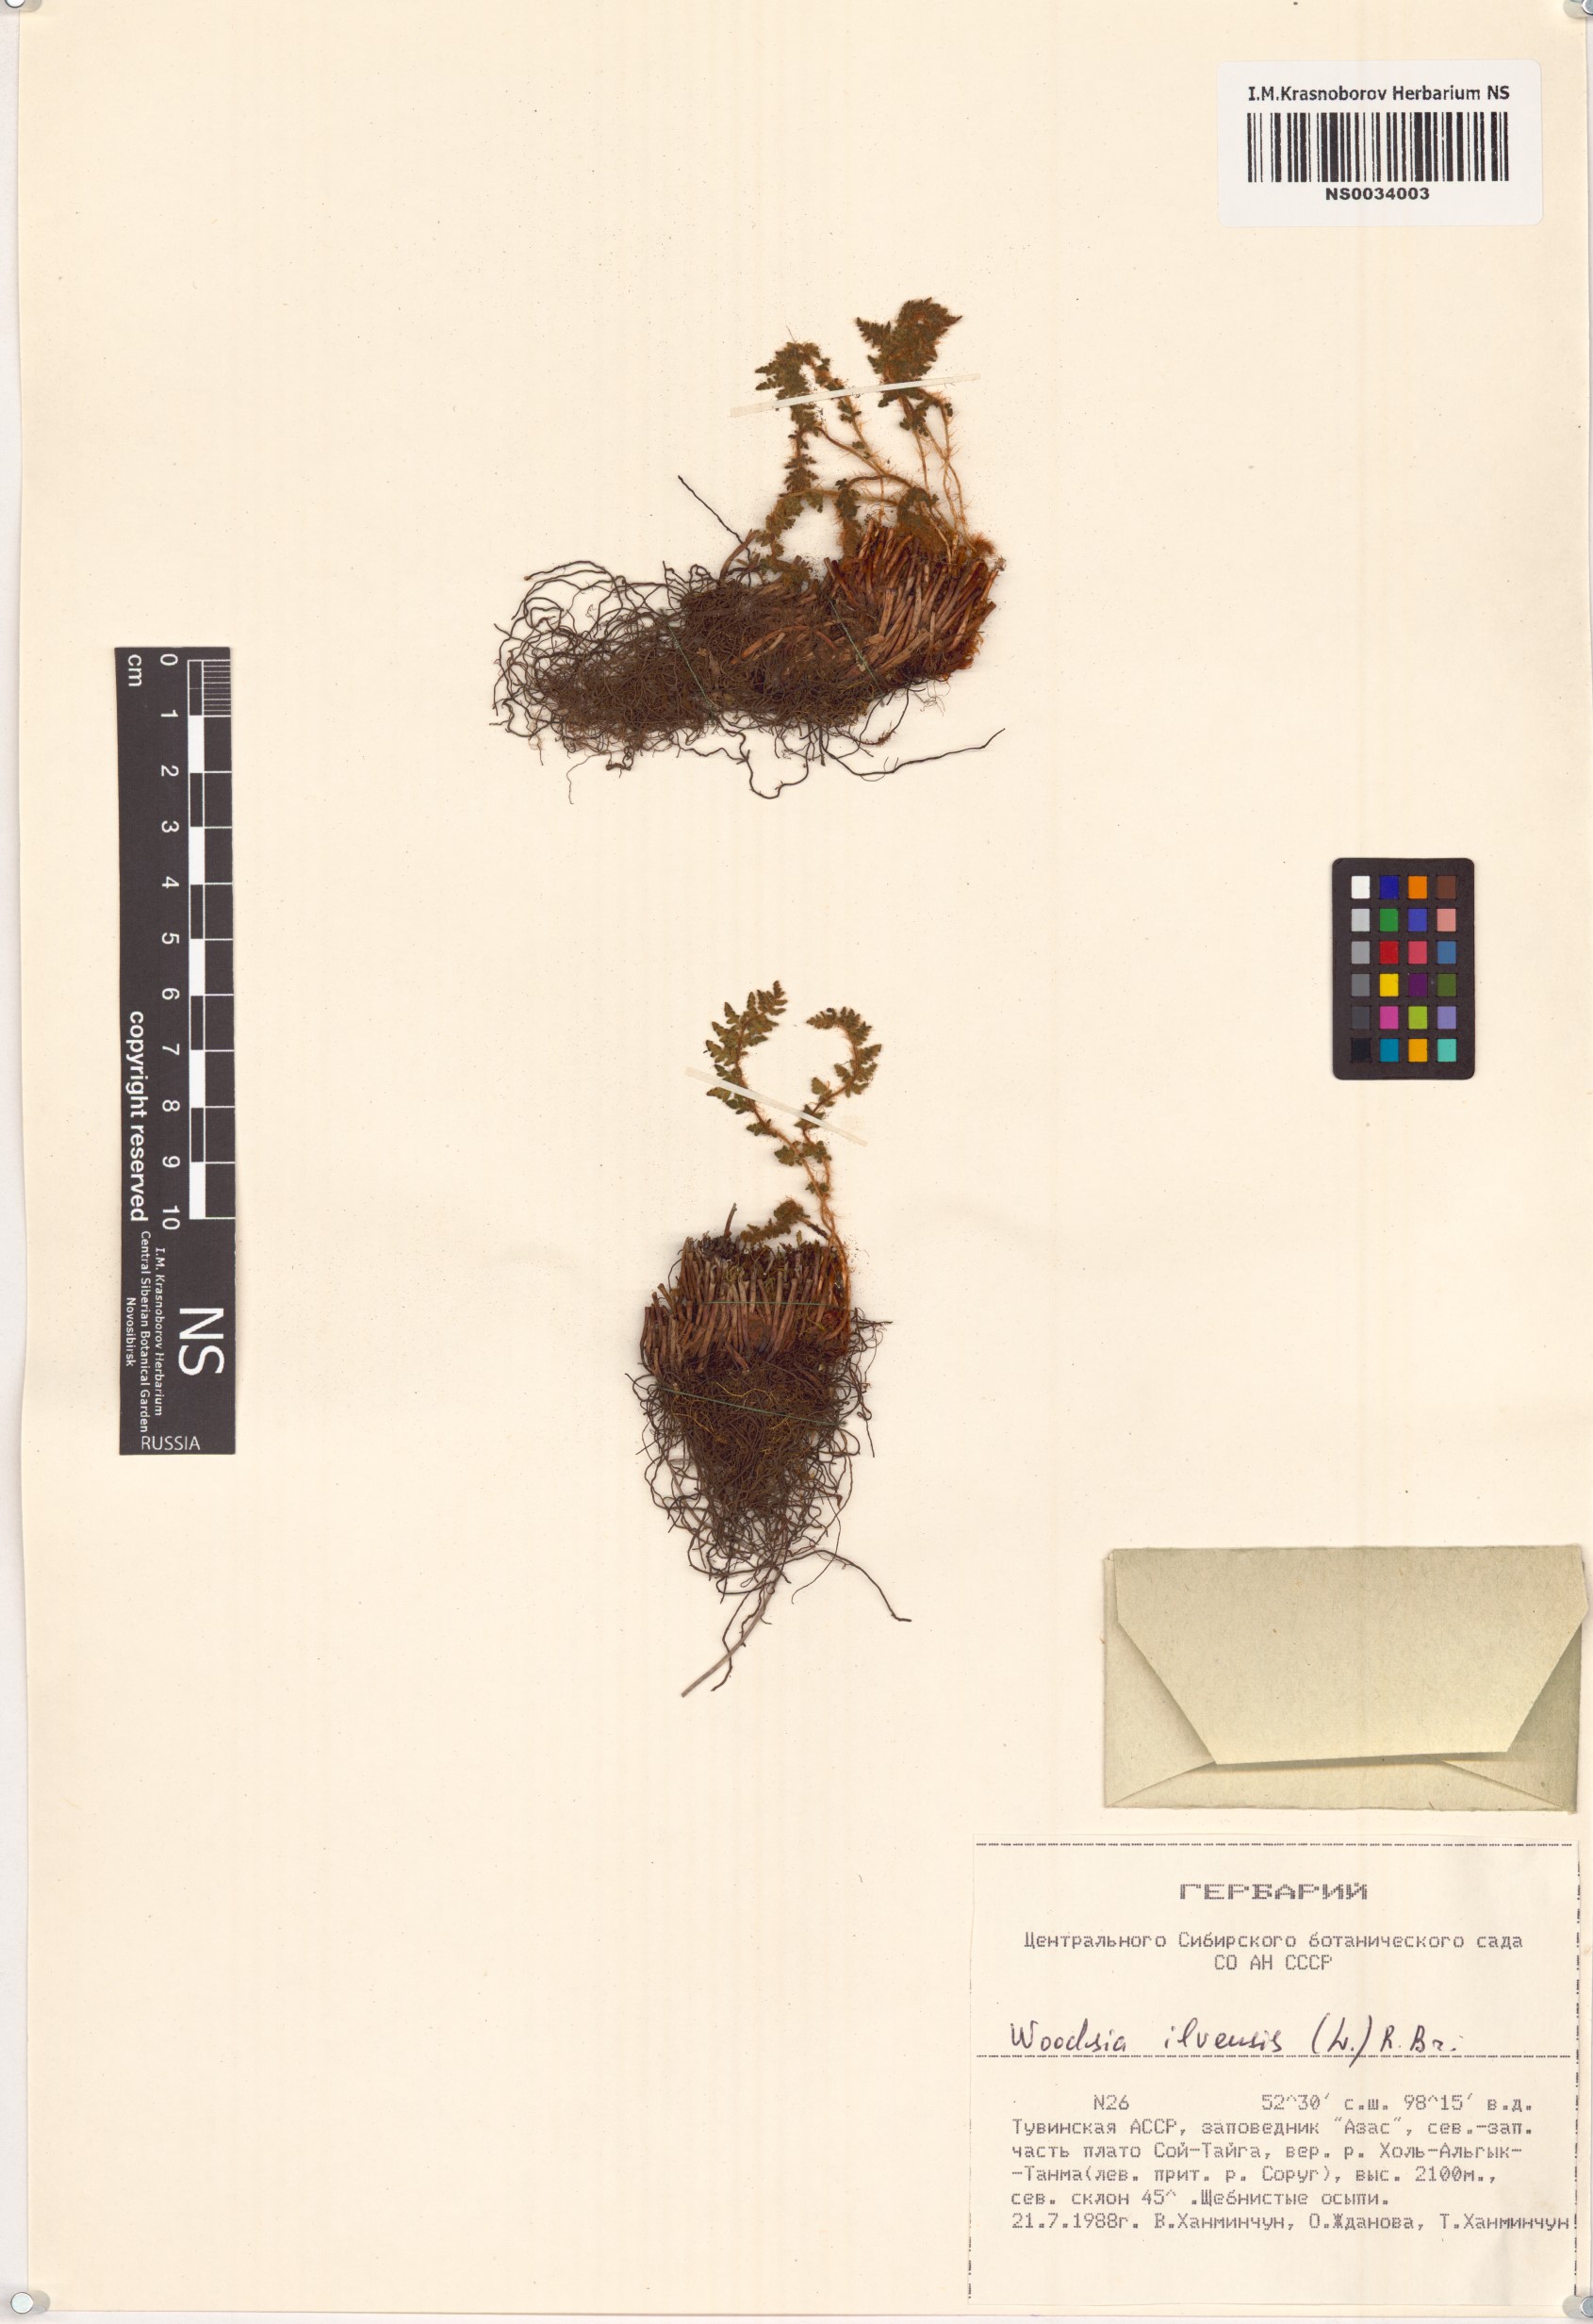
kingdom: Plantae
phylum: Tracheophyta
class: Polypodiopsida
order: Polypodiales
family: Woodsiaceae
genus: Woodsia
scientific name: Woodsia ilvensis
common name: Fragrant woodsia
